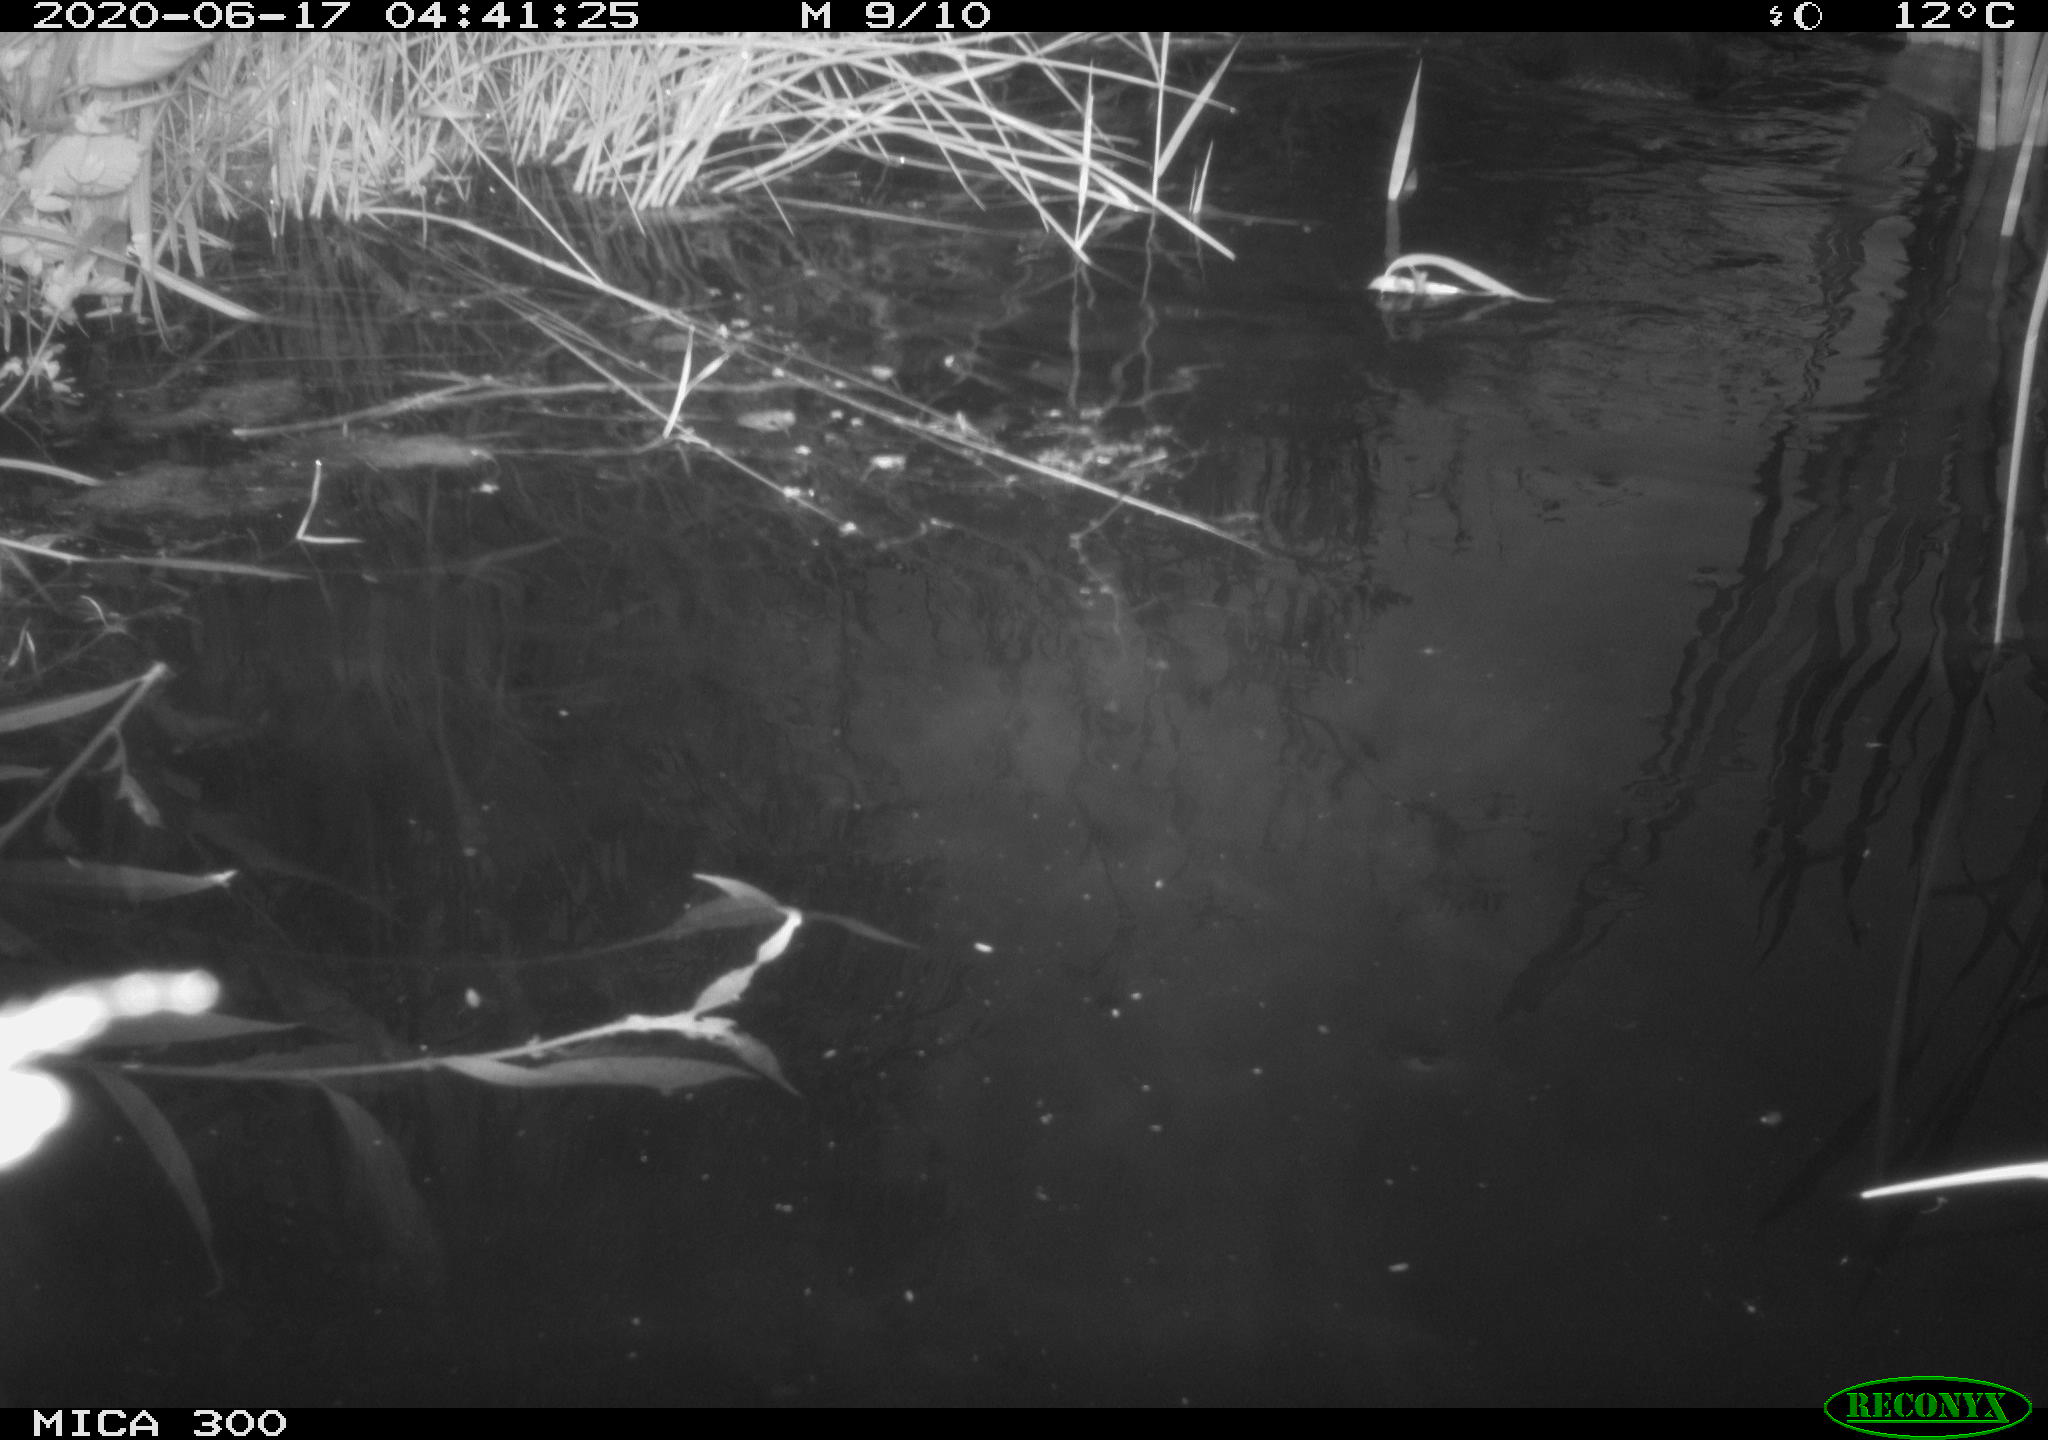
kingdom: Animalia
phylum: Chordata
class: Mammalia
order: Rodentia
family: Castoridae
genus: Castor
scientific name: Castor fiber
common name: Eurasian beaver
